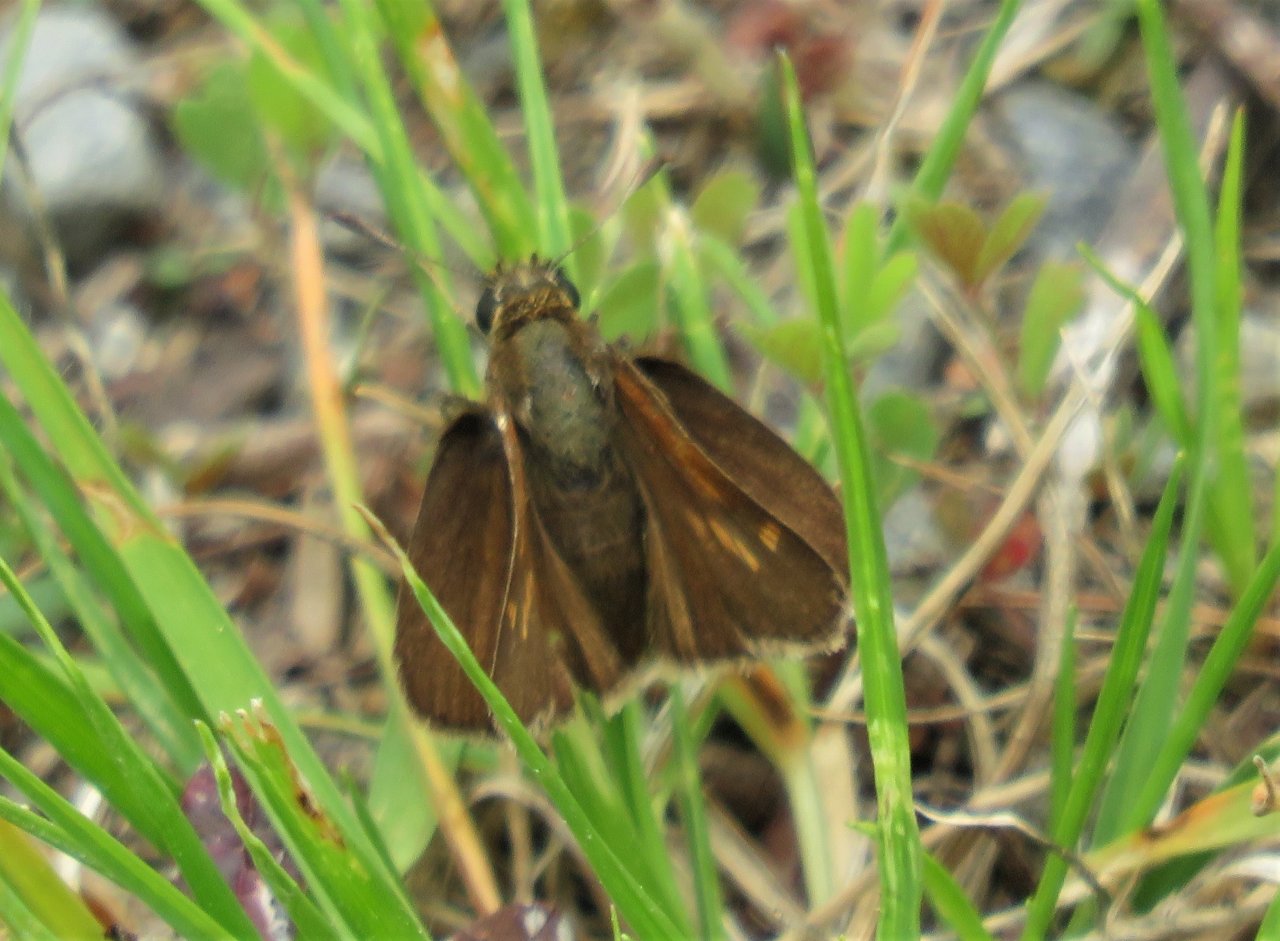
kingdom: Animalia
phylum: Arthropoda
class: Insecta
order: Lepidoptera
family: Hesperiidae
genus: Polites
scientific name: Polites themistocles
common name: Tawny-edged Skipper
